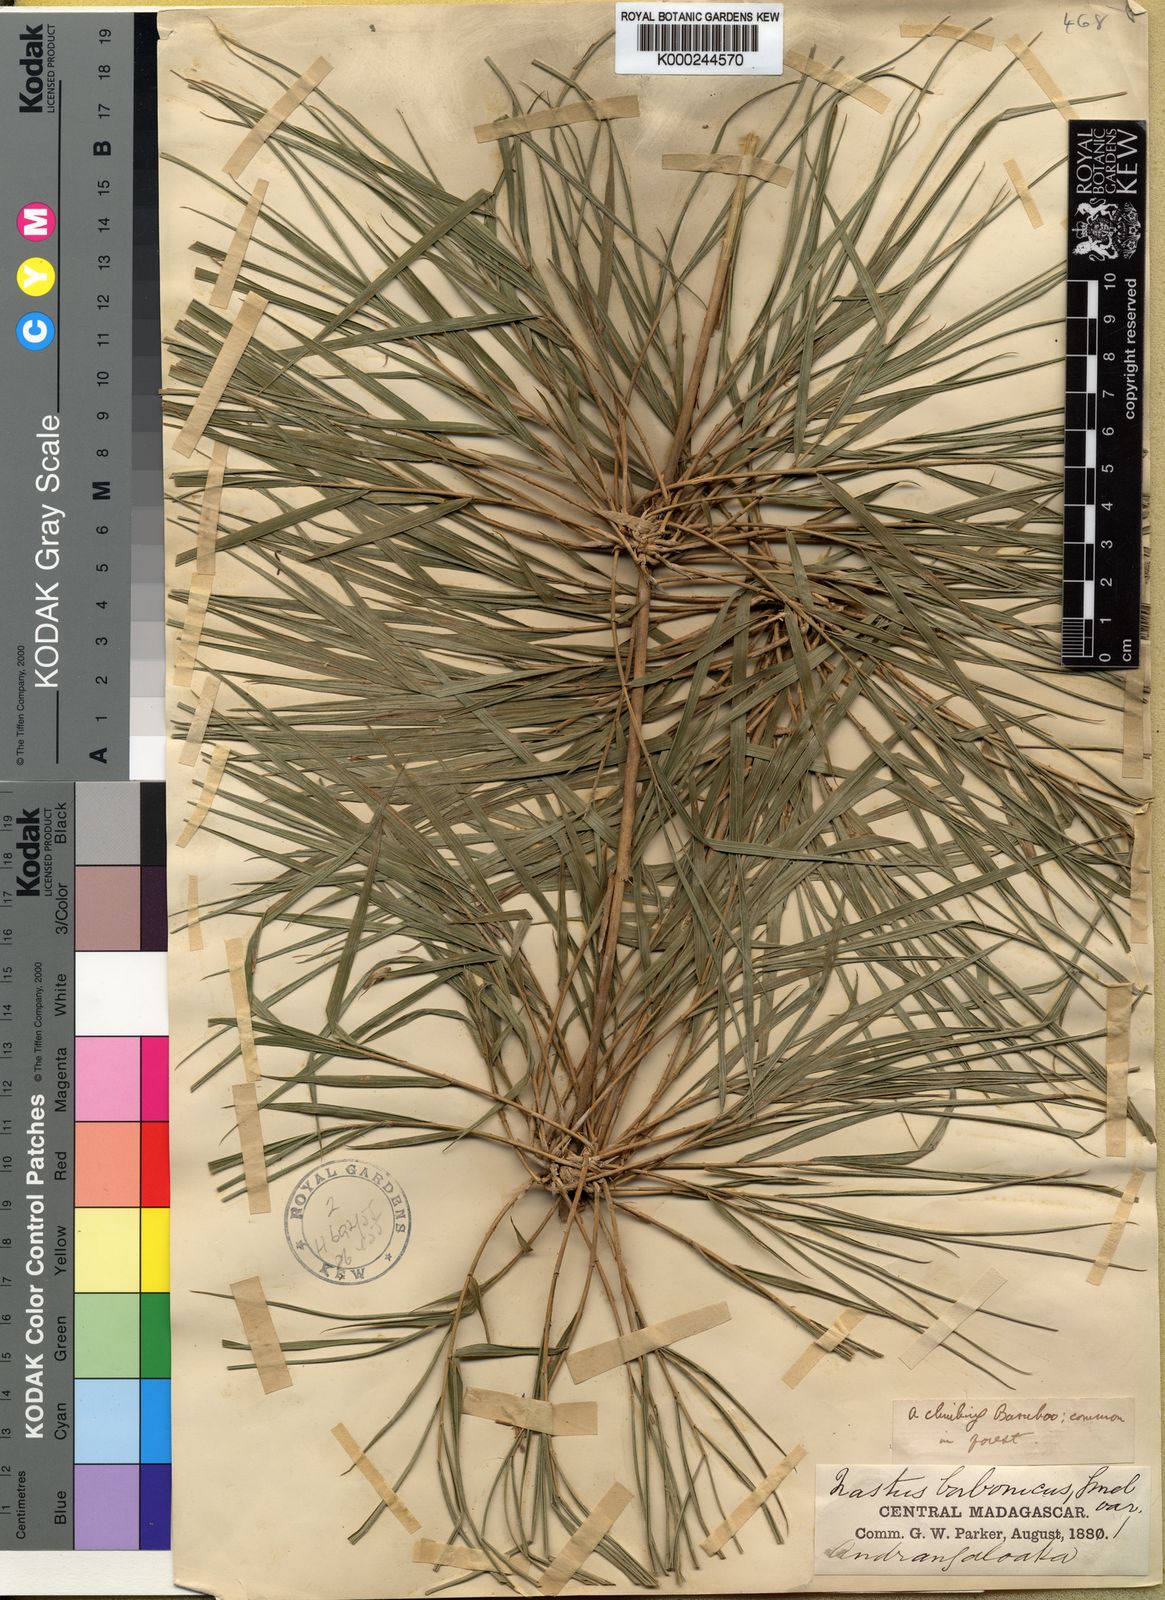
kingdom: Plantae
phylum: Tracheophyta
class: Liliopsida
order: Poales
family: Poaceae
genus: Nastus
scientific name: Nastus emirnensis
